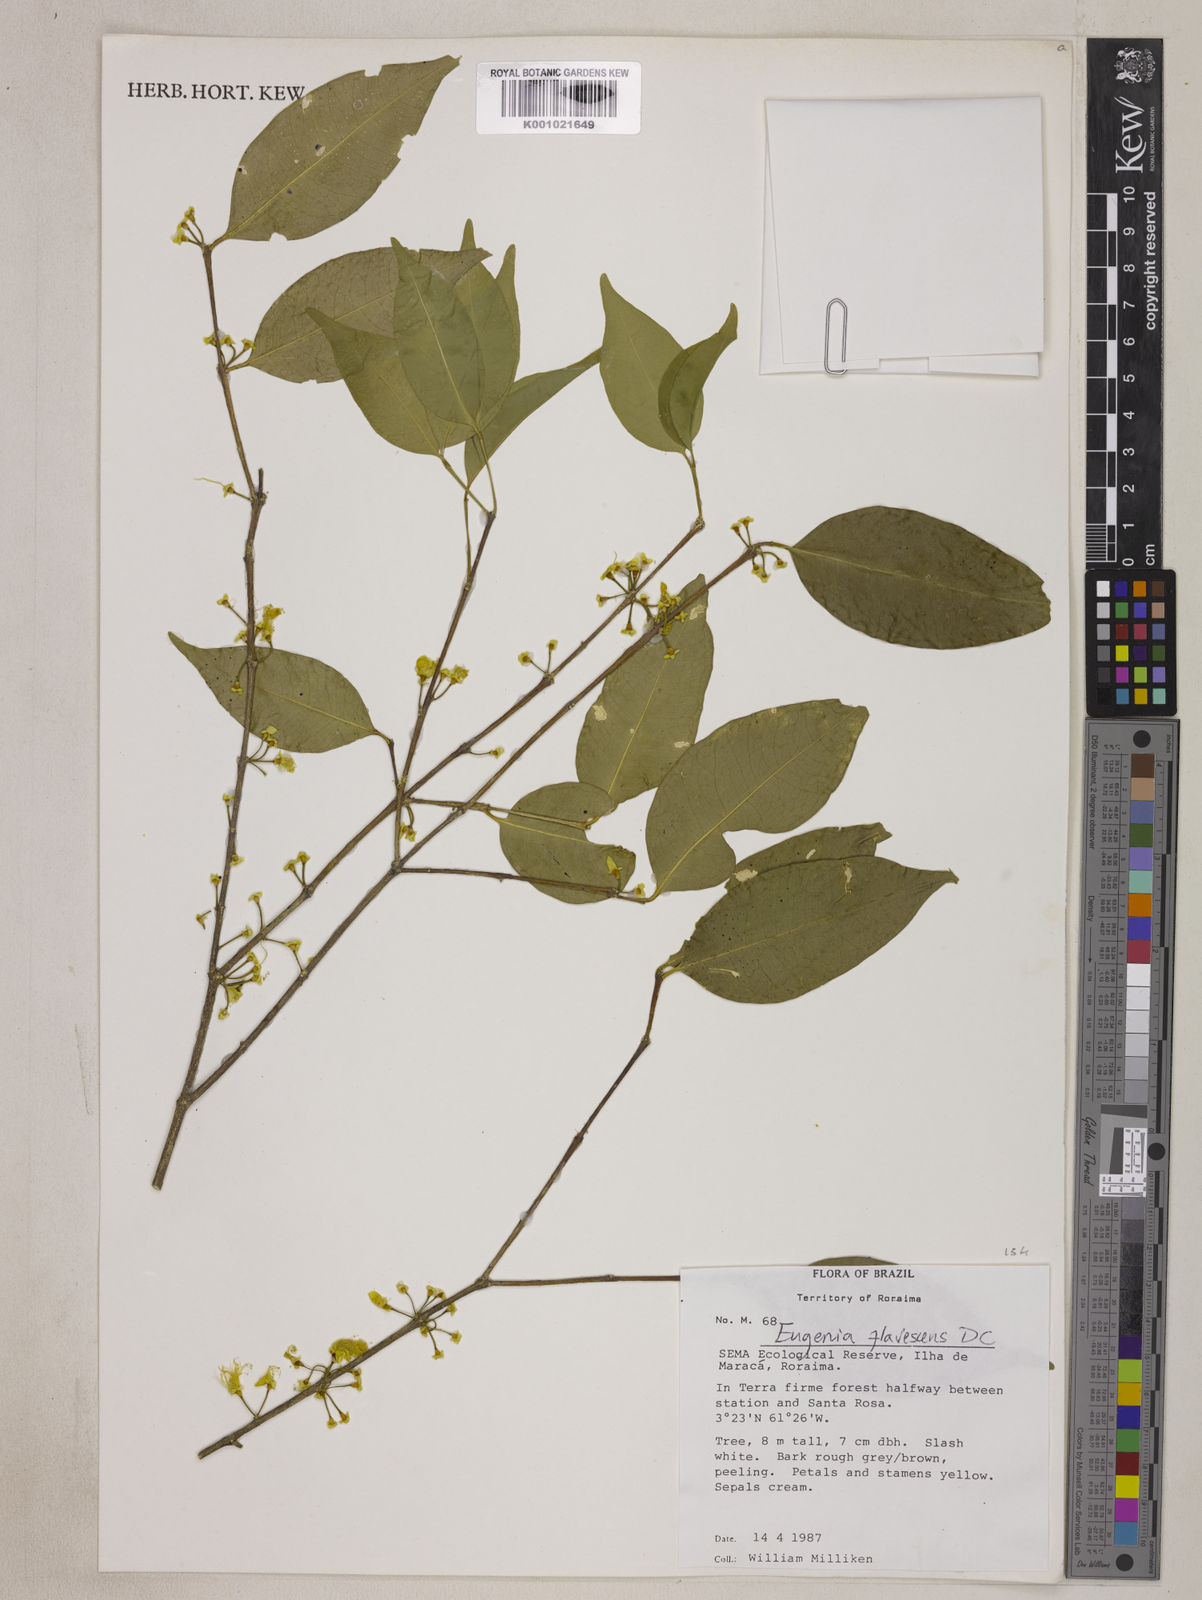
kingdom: Plantae
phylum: Tracheophyta
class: Magnoliopsida
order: Myrtales
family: Myrtaceae
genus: Eugenia
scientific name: Eugenia flavescens
